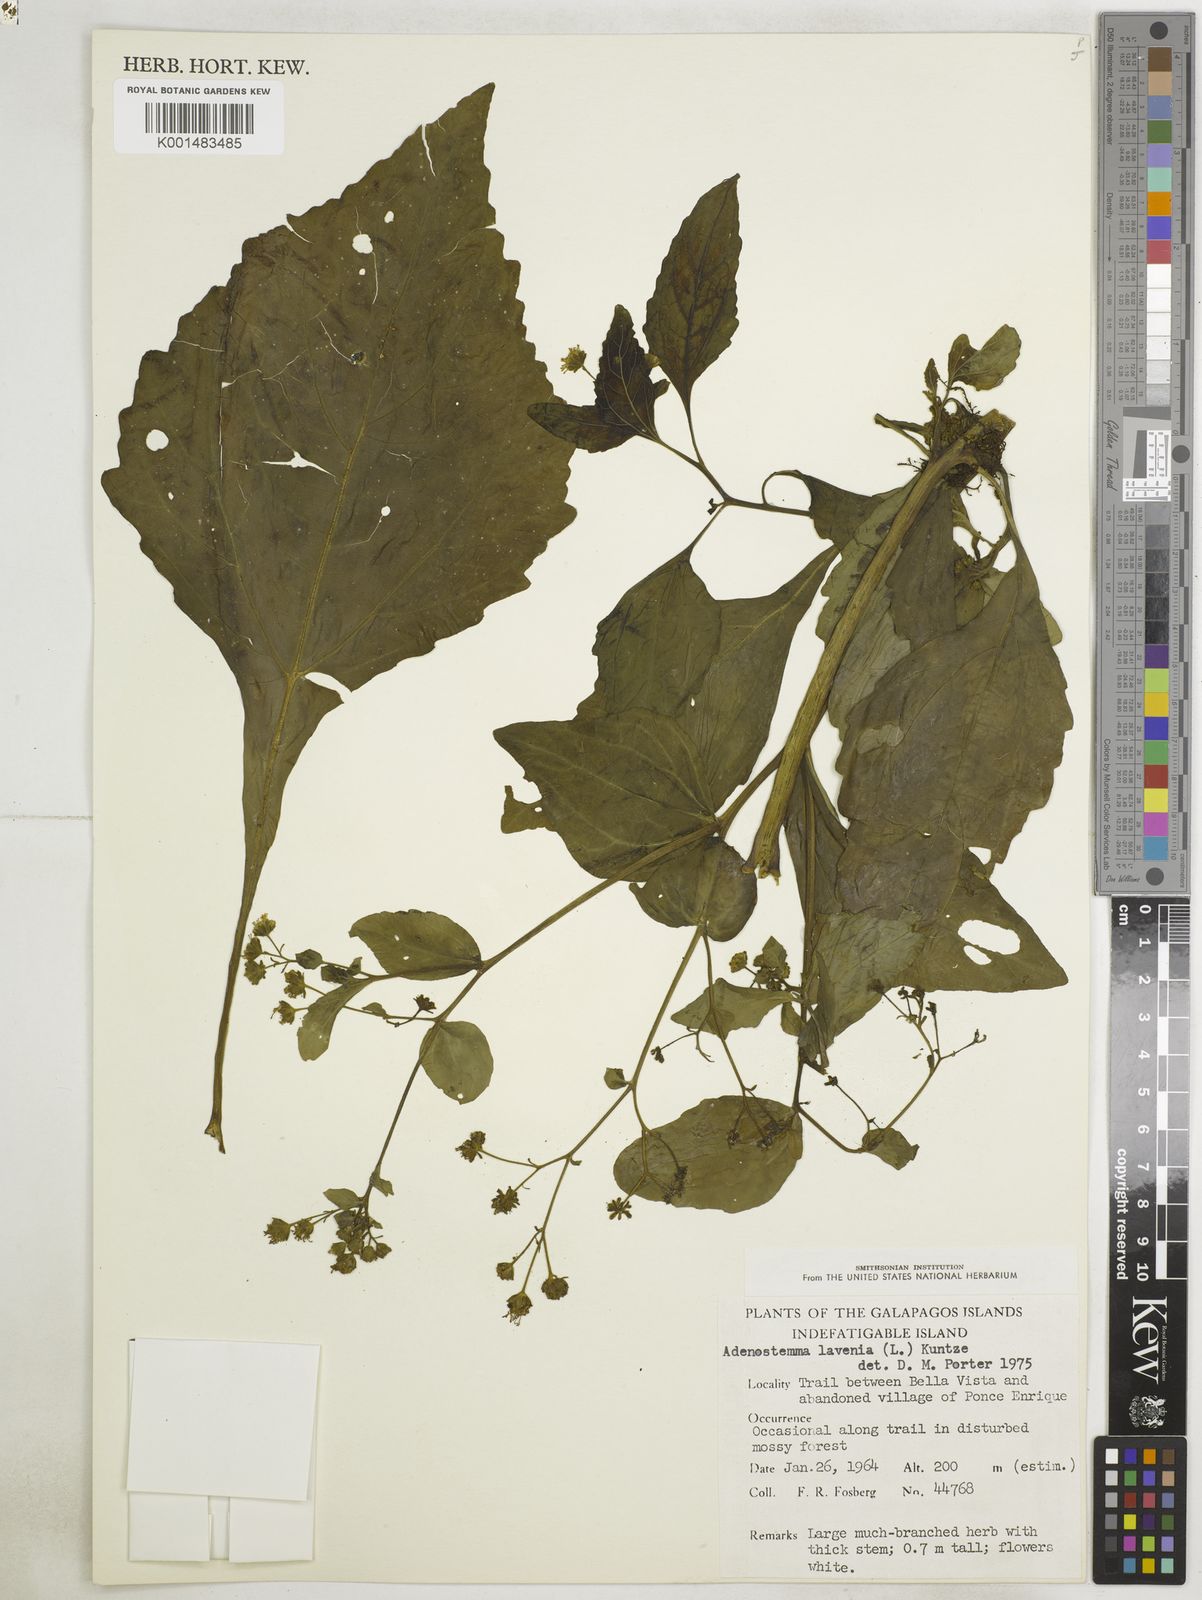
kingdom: Plantae
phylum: Tracheophyta
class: Magnoliopsida
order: Asterales
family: Asteraceae
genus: Adenostemma
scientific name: Adenostemma lavenia
